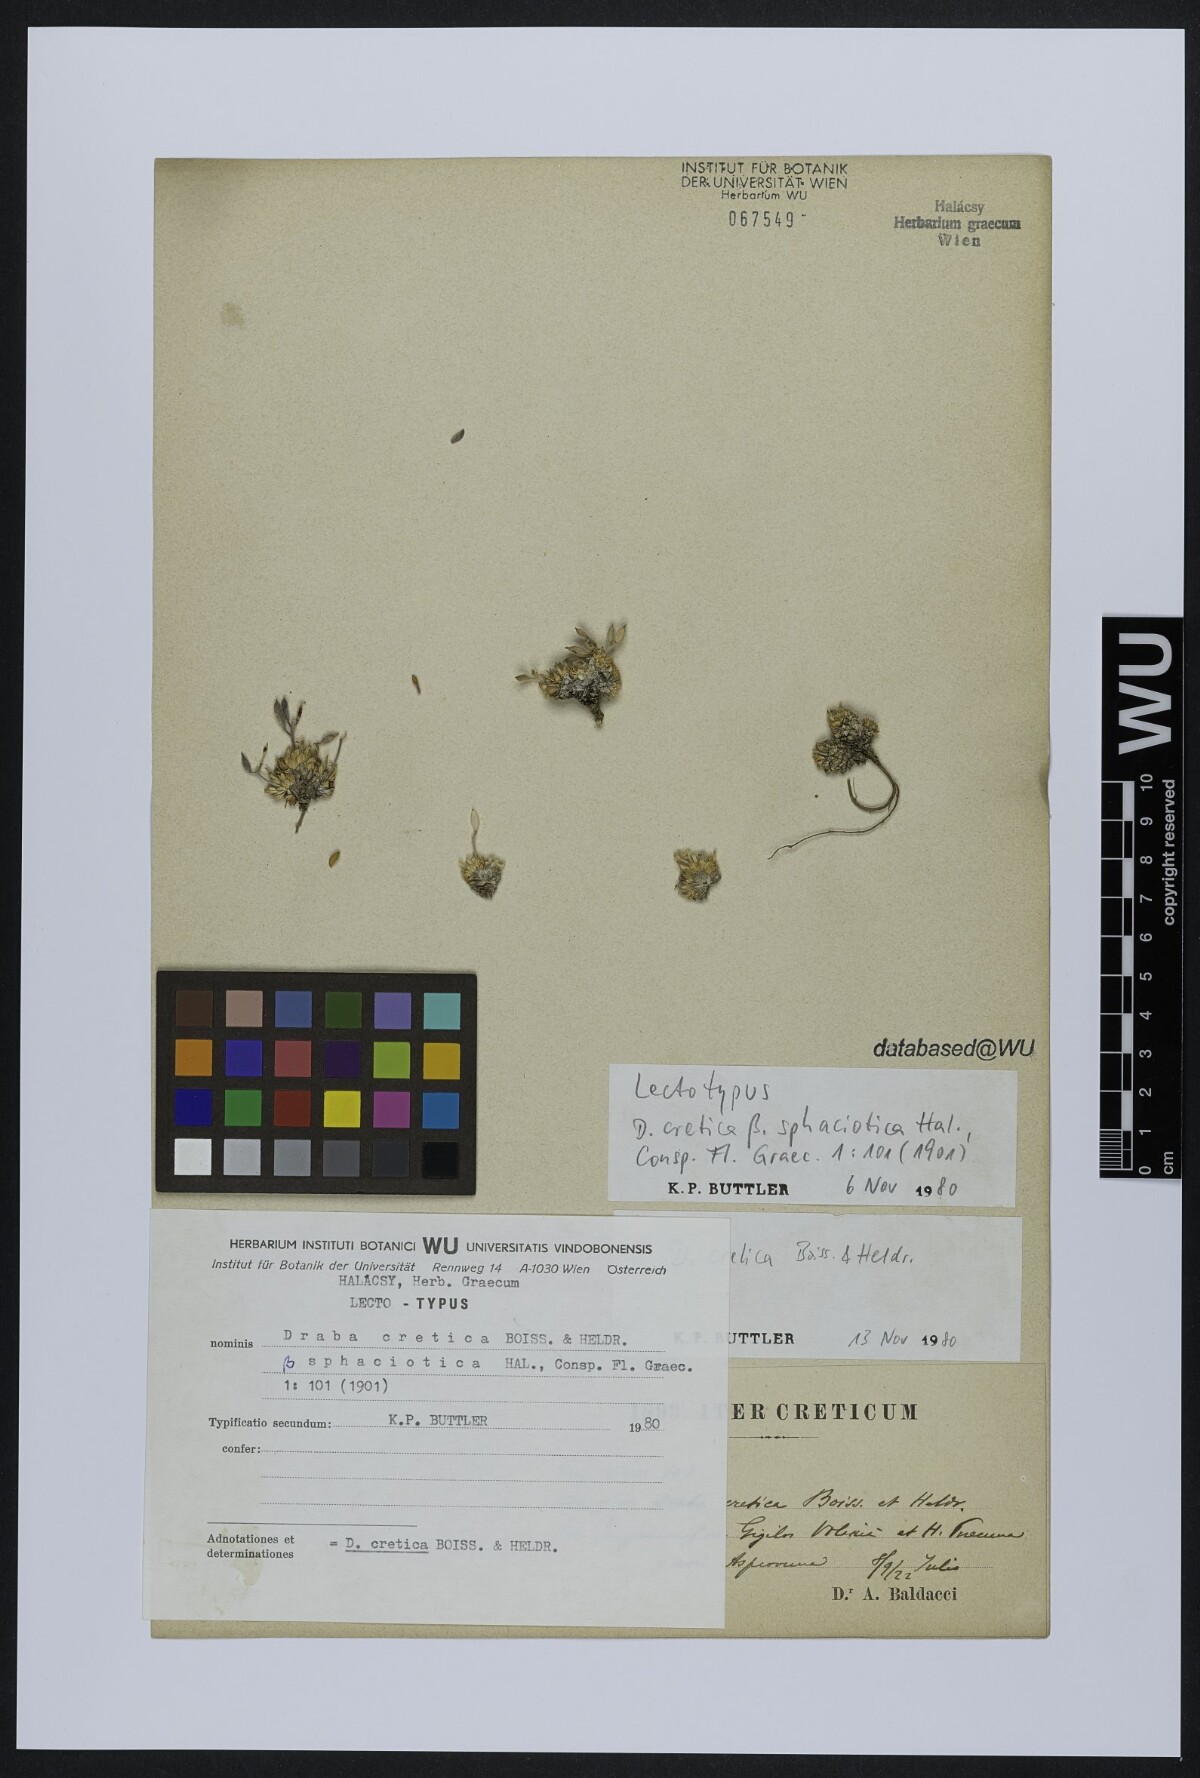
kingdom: Plantae
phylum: Tracheophyta
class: Magnoliopsida
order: Brassicales
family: Brassicaceae
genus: Draba
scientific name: Draba cretica
